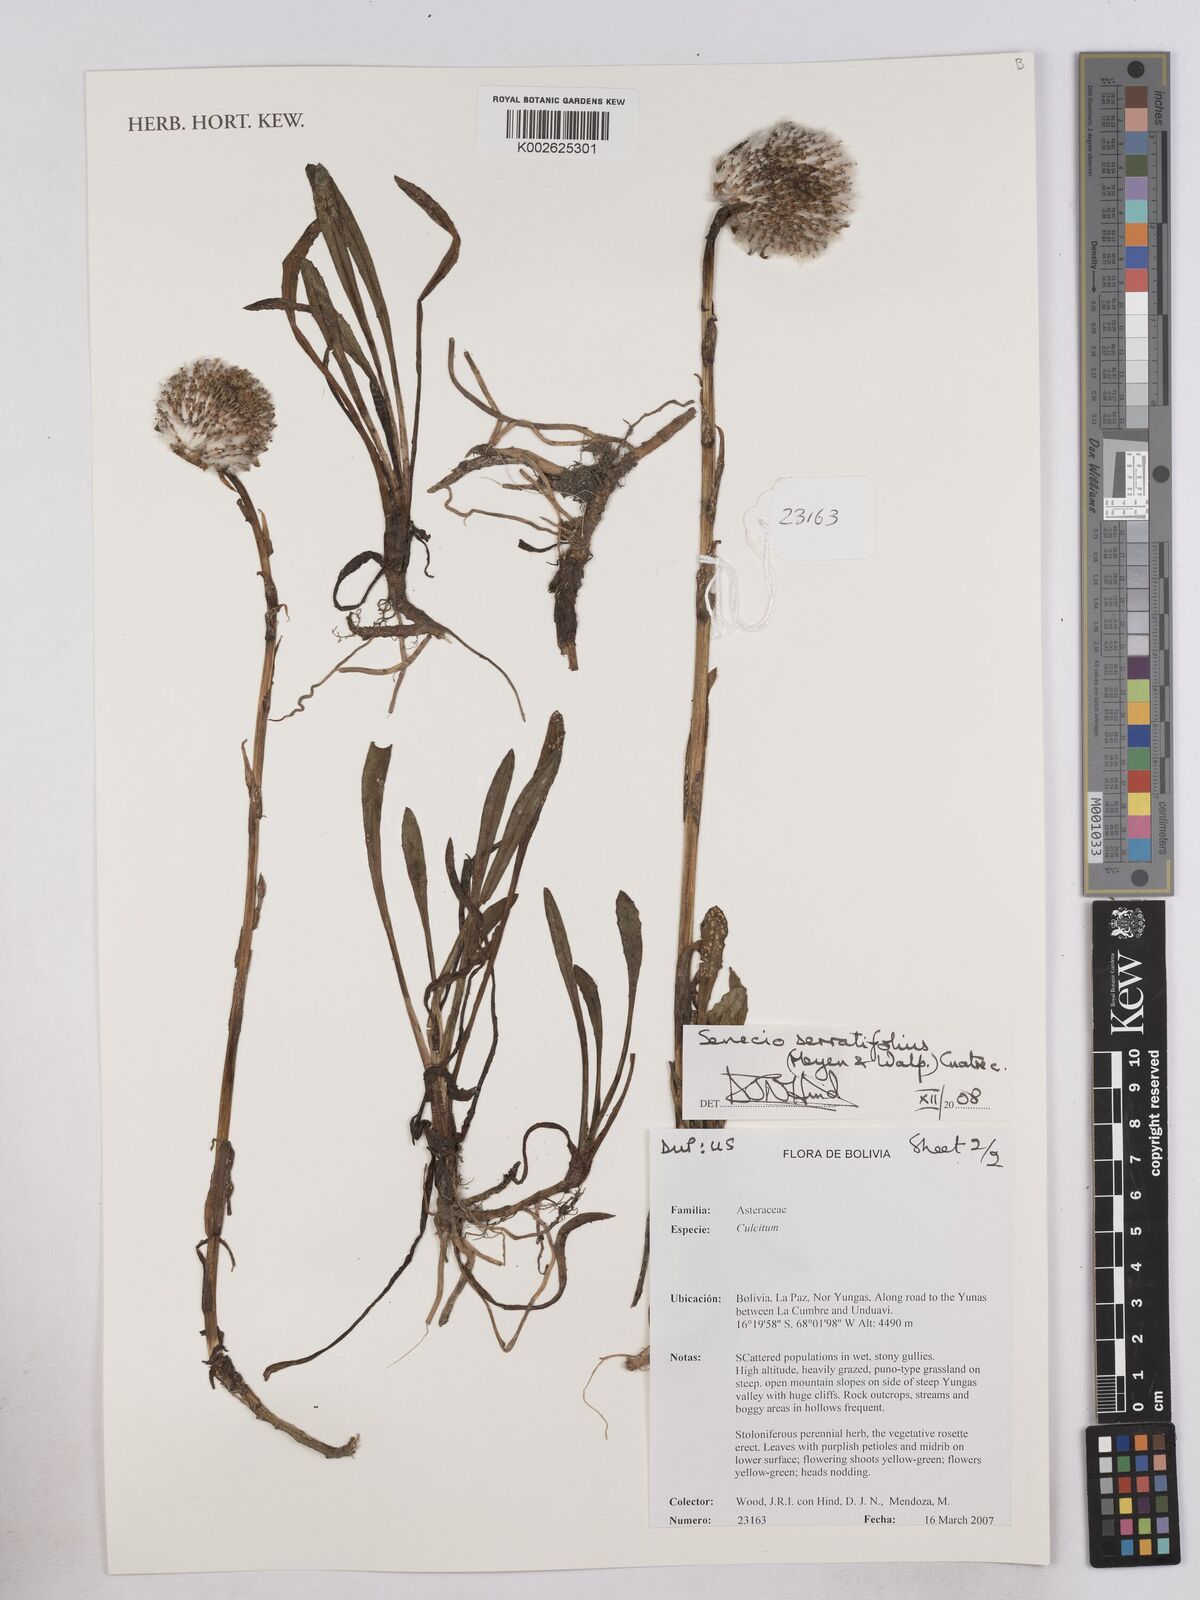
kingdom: Plantae
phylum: Tracheophyta
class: Magnoliopsida
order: Asterales
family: Asteraceae
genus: Senecio
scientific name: Senecio serratifolius
